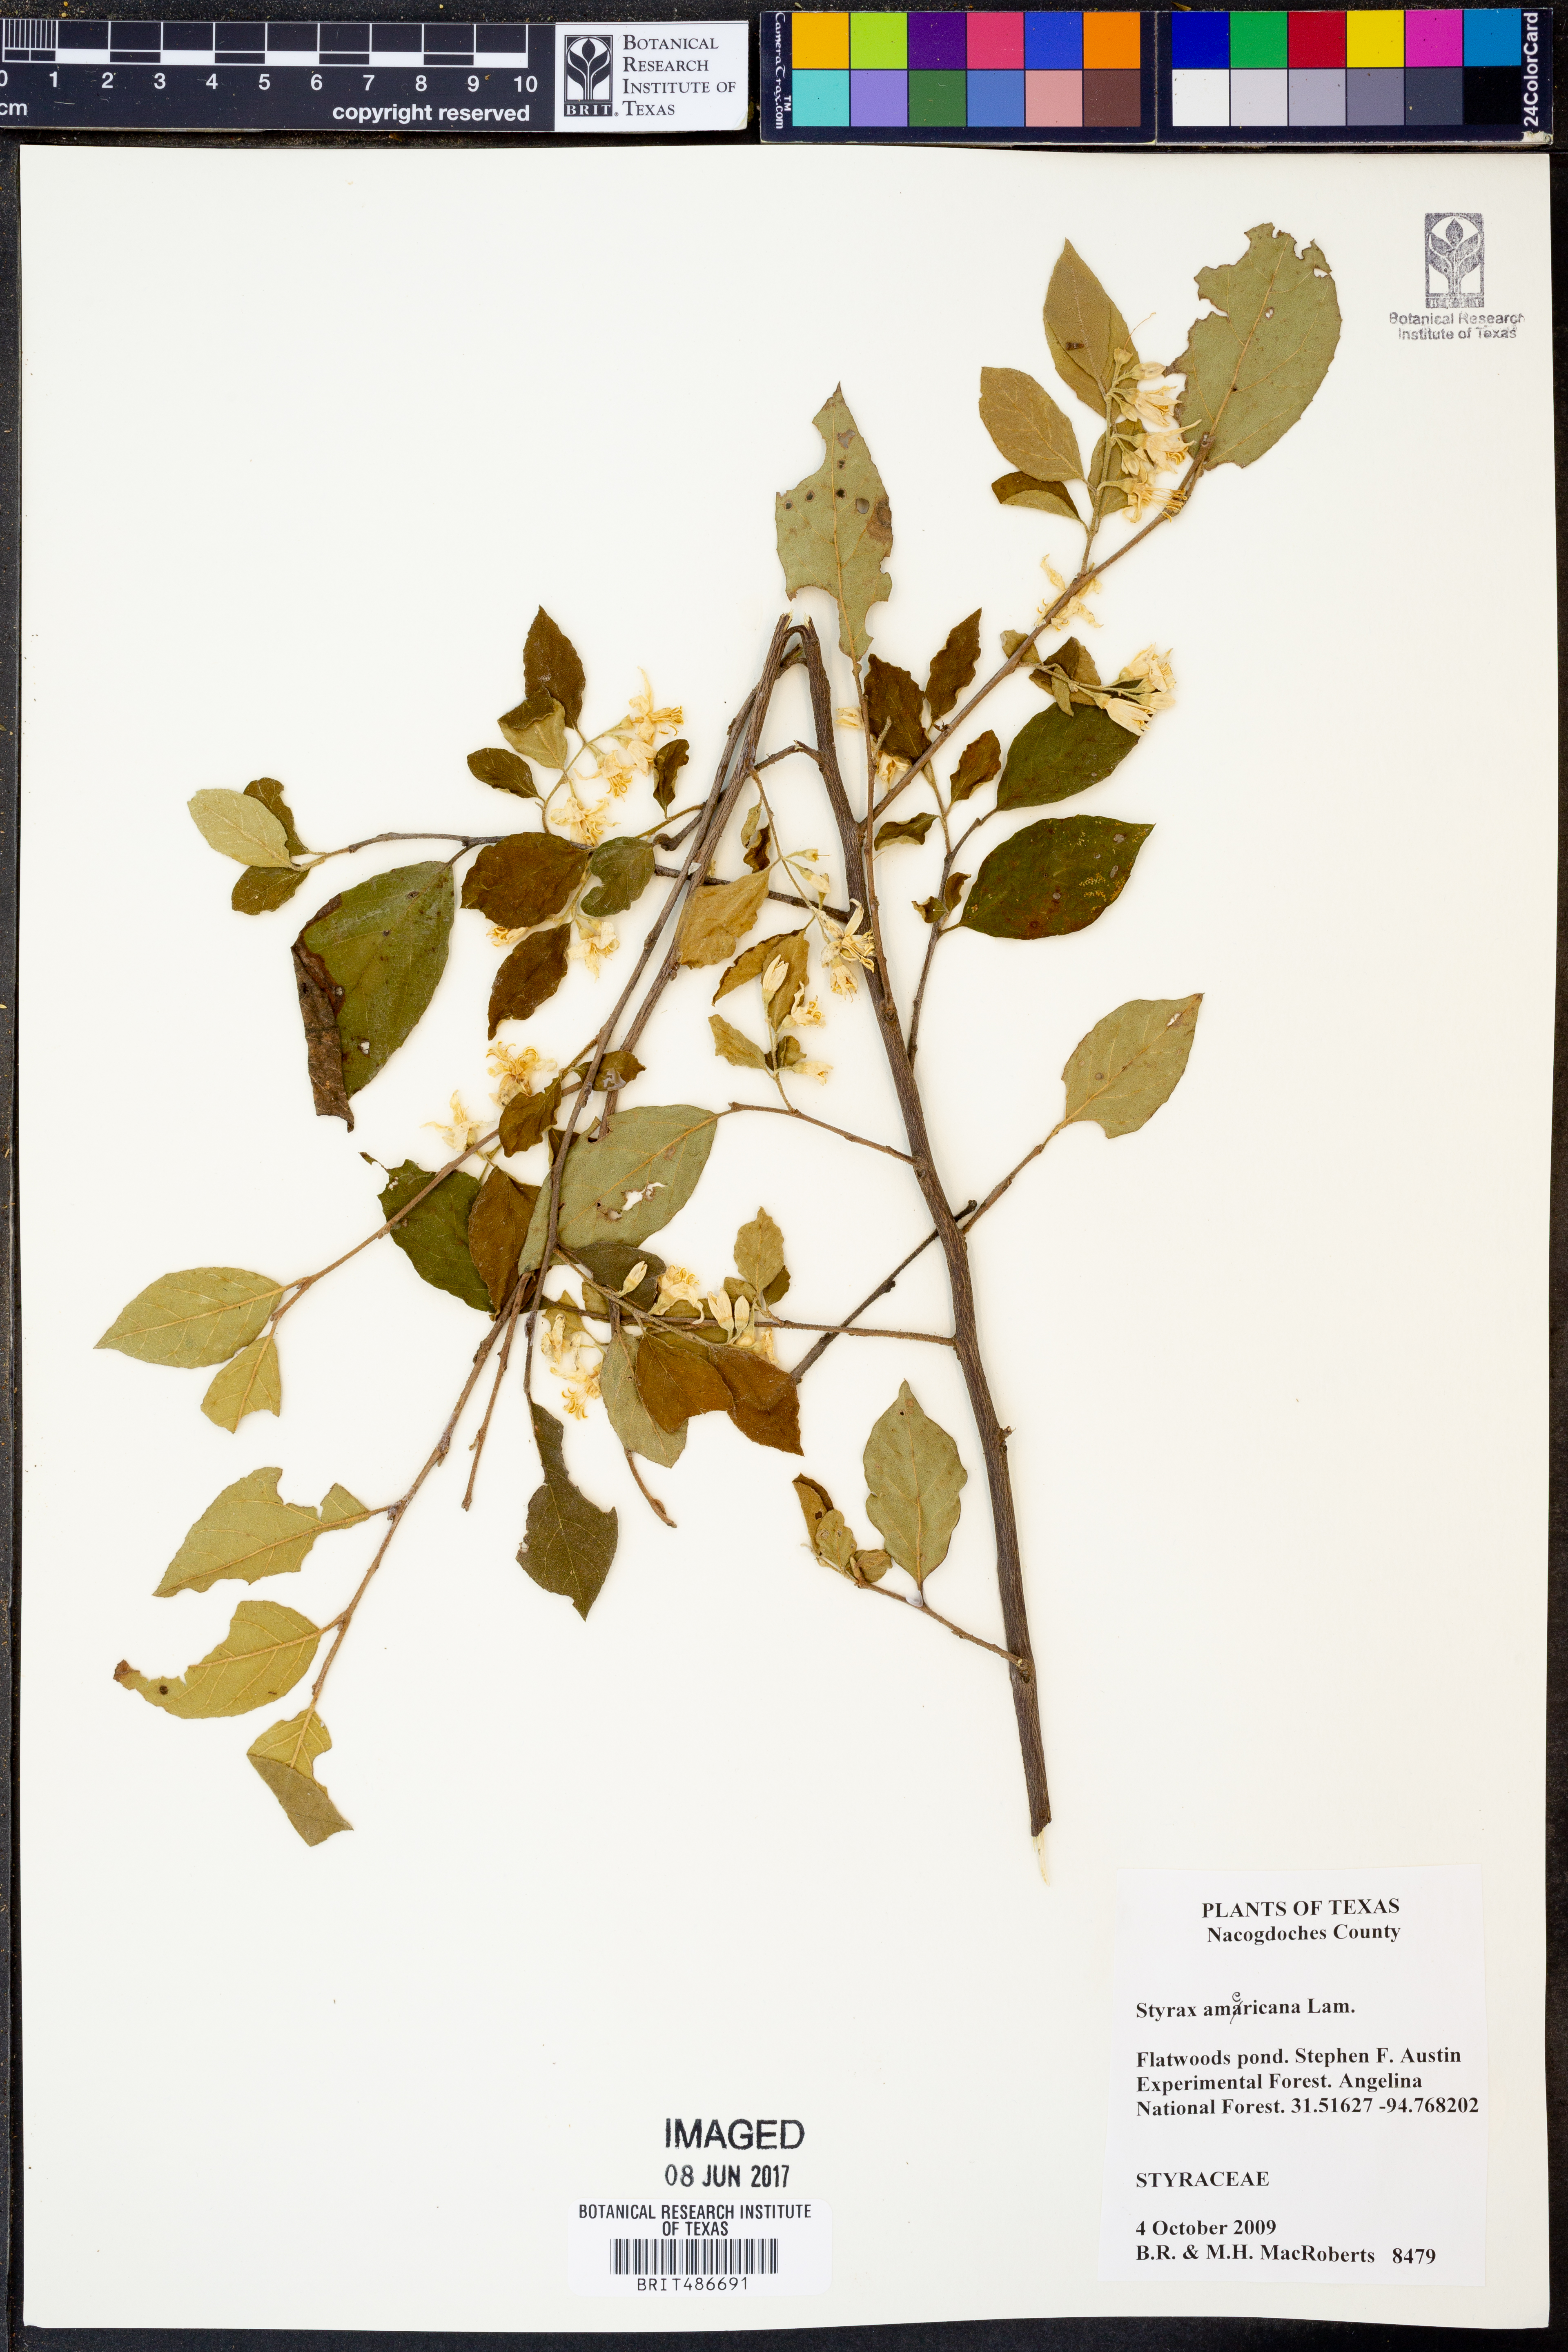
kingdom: Plantae
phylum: Tracheophyta
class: Magnoliopsida
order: Ericales
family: Styracaceae
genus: Styrax
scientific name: Styrax americanus
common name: American snowbell
